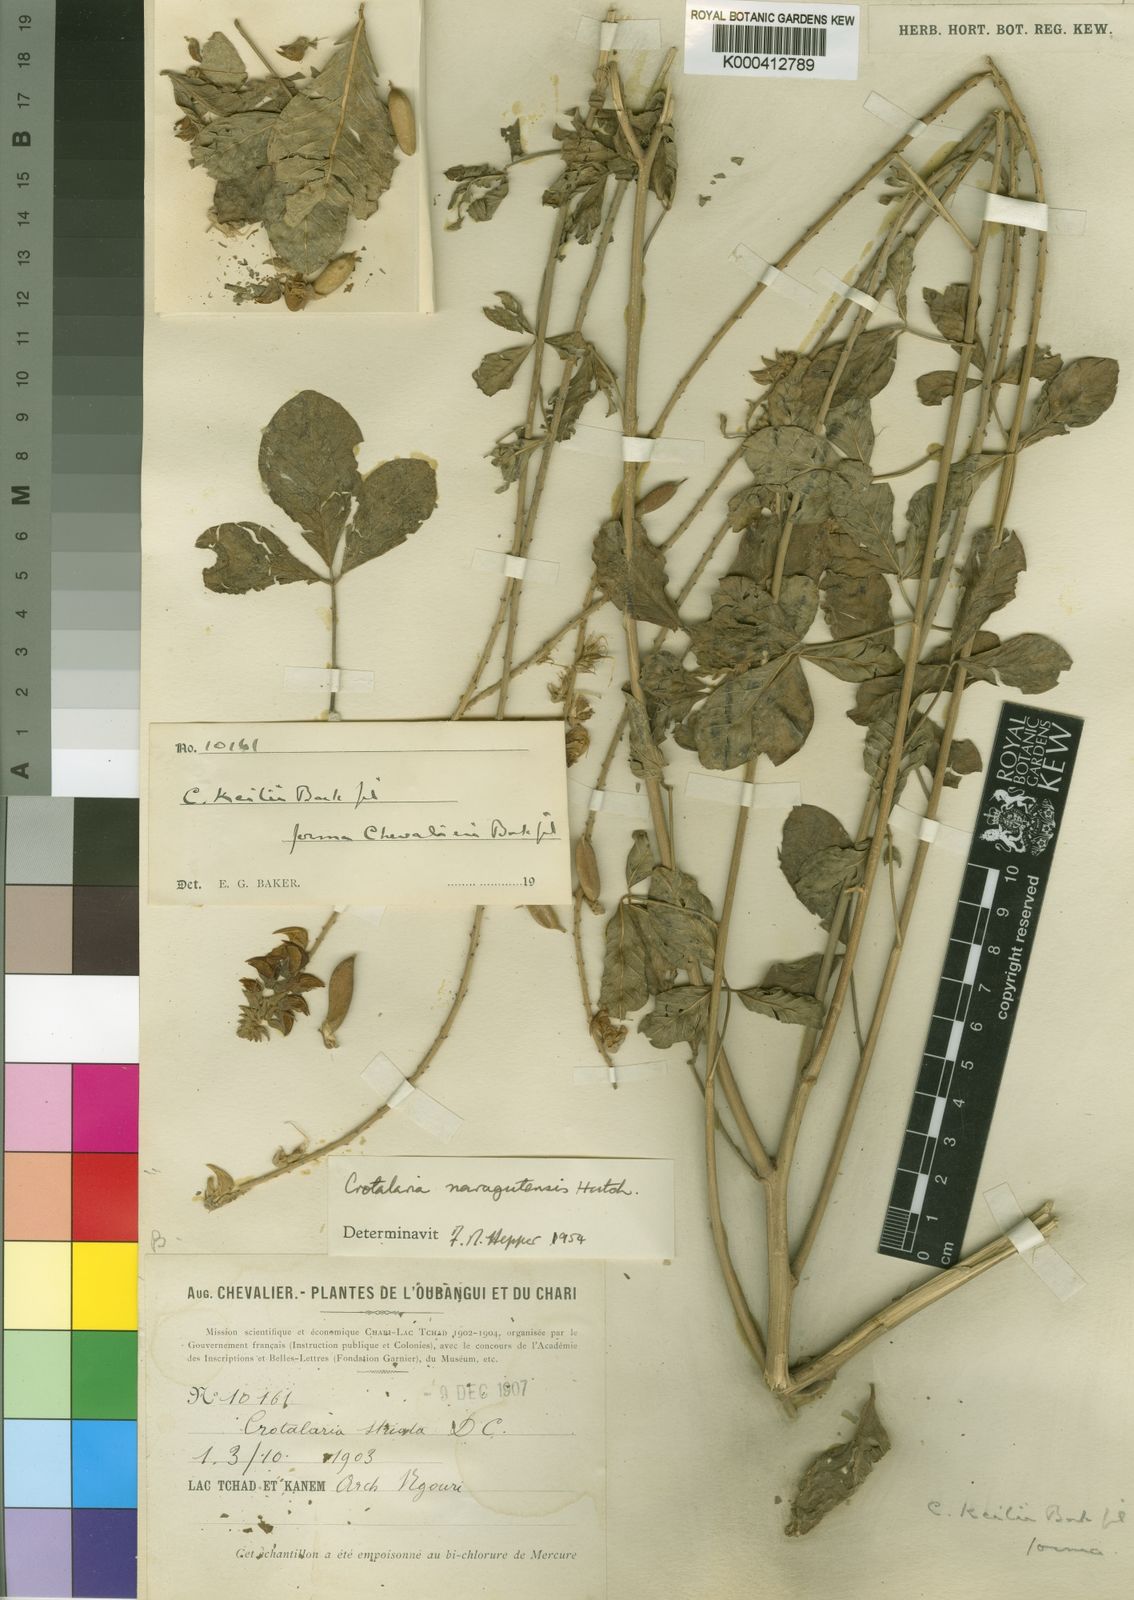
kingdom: Plantae
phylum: Tracheophyta
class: Magnoliopsida
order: Fabales
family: Fabaceae
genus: Crotalaria
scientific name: Crotalaria naragutensis
